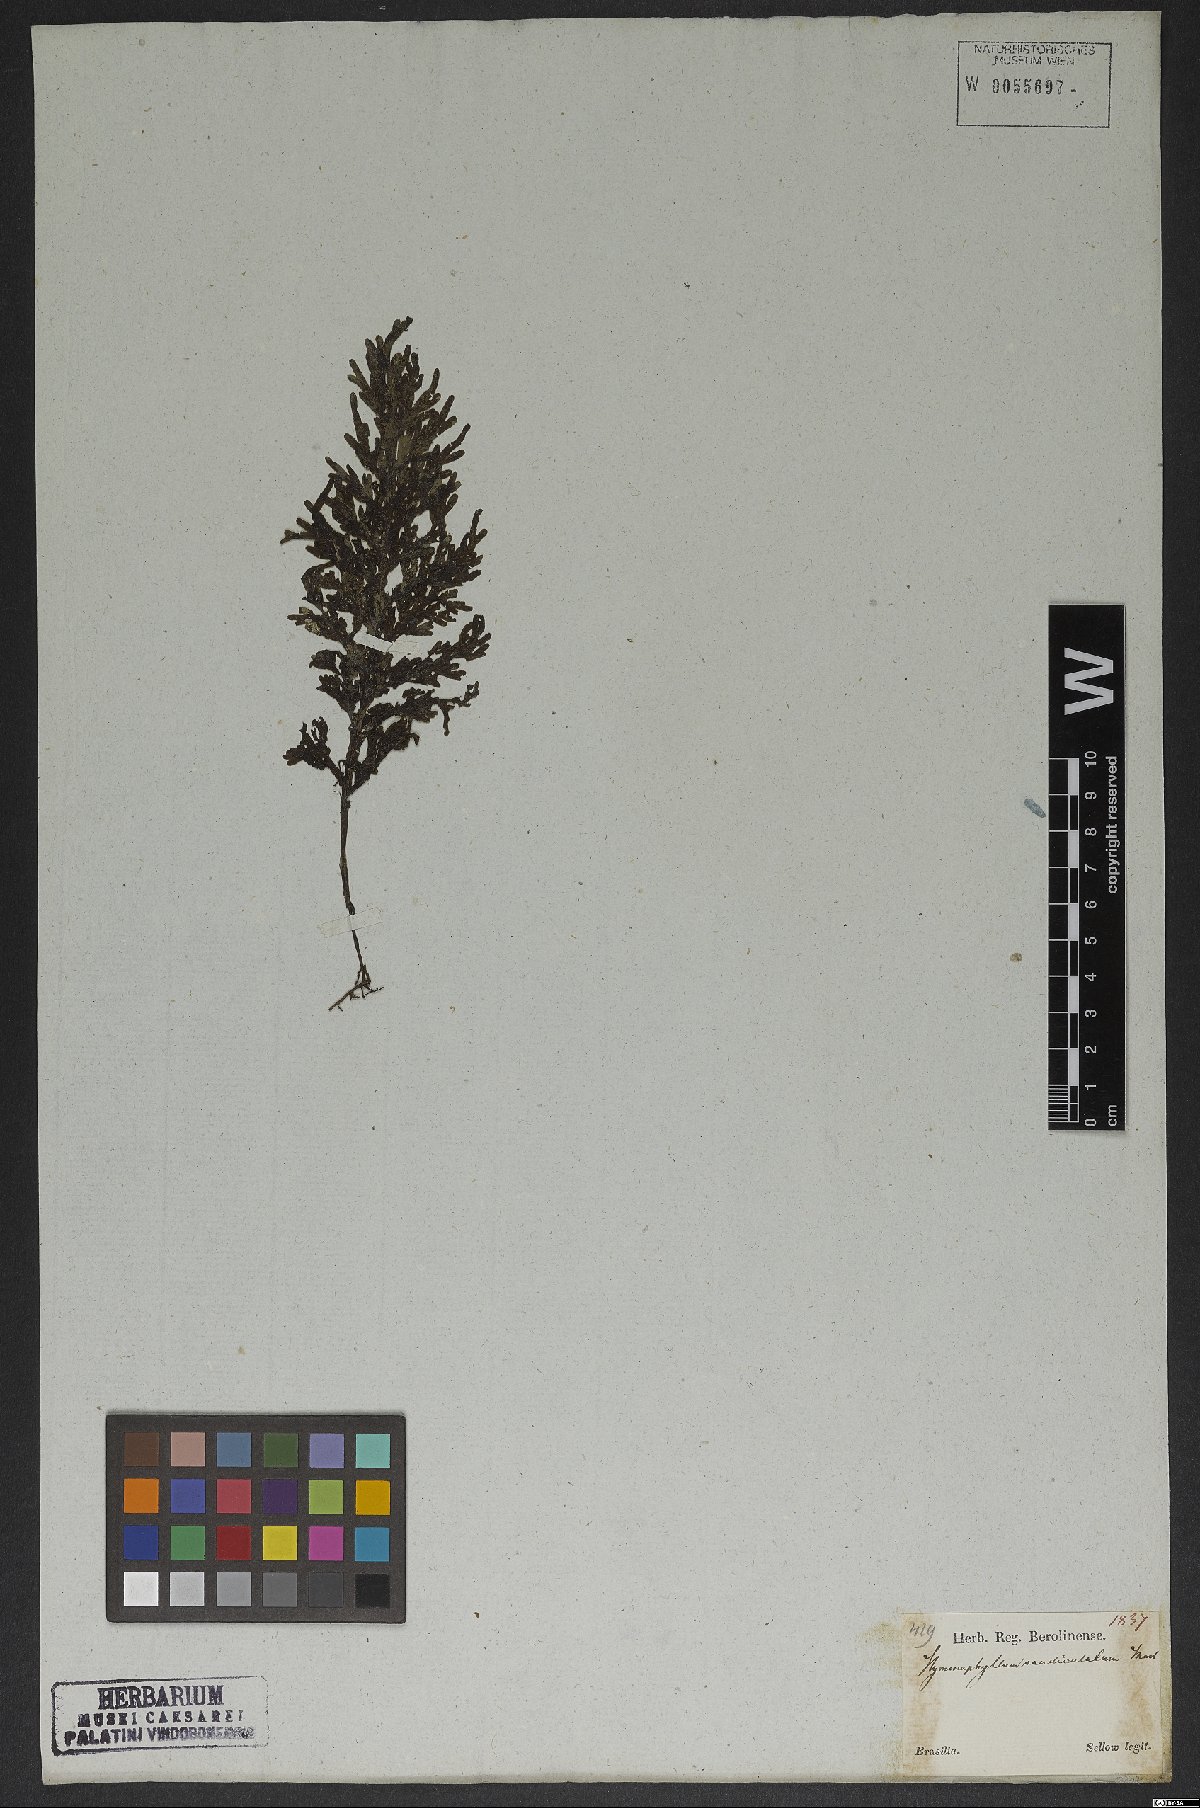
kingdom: Plantae
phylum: Tracheophyta
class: Polypodiopsida
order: Hymenophyllales
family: Hymenophyllaceae
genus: Hymenophyllum
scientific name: Hymenophyllum asplenioides
